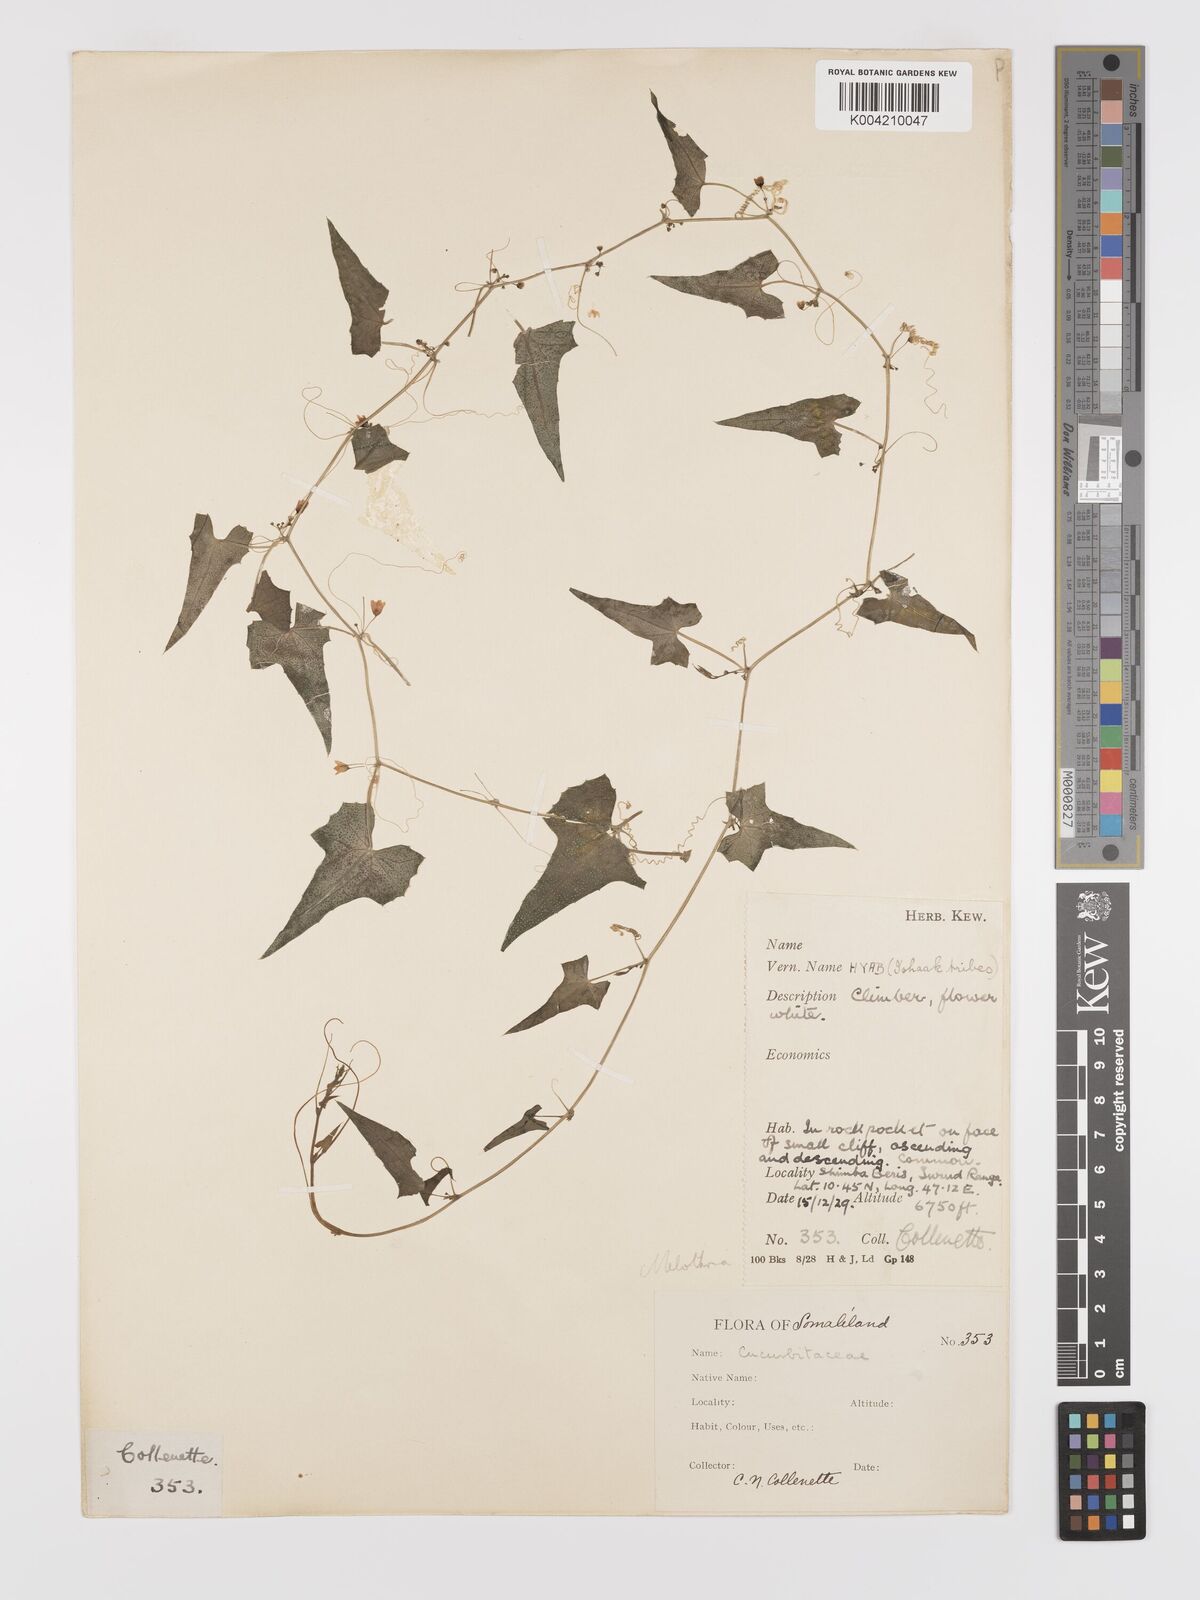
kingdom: Plantae
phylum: Tracheophyta
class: Magnoliopsida
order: Cucurbitales
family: Cucurbitaceae
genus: Zehneria
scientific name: Zehneria scabra
